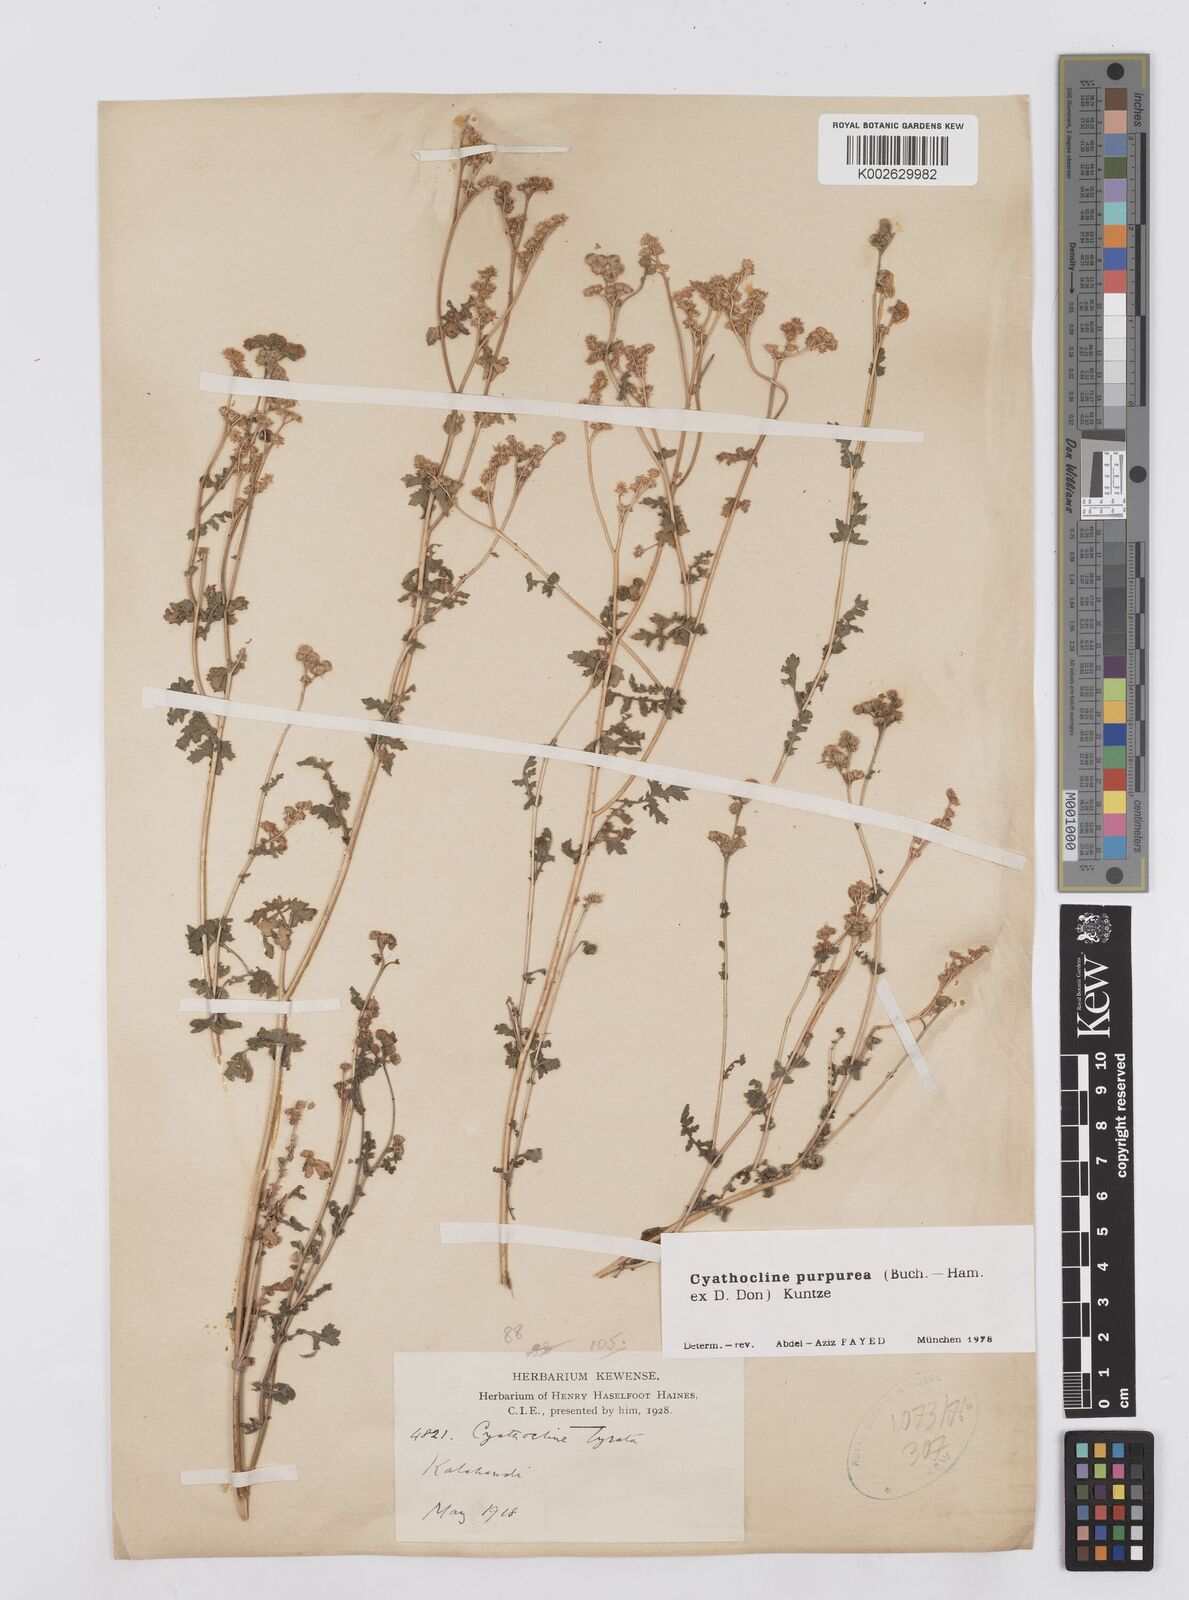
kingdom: Plantae
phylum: Tracheophyta
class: Magnoliopsida
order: Asterales
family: Asteraceae
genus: Cyathocline
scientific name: Cyathocline purpurea
